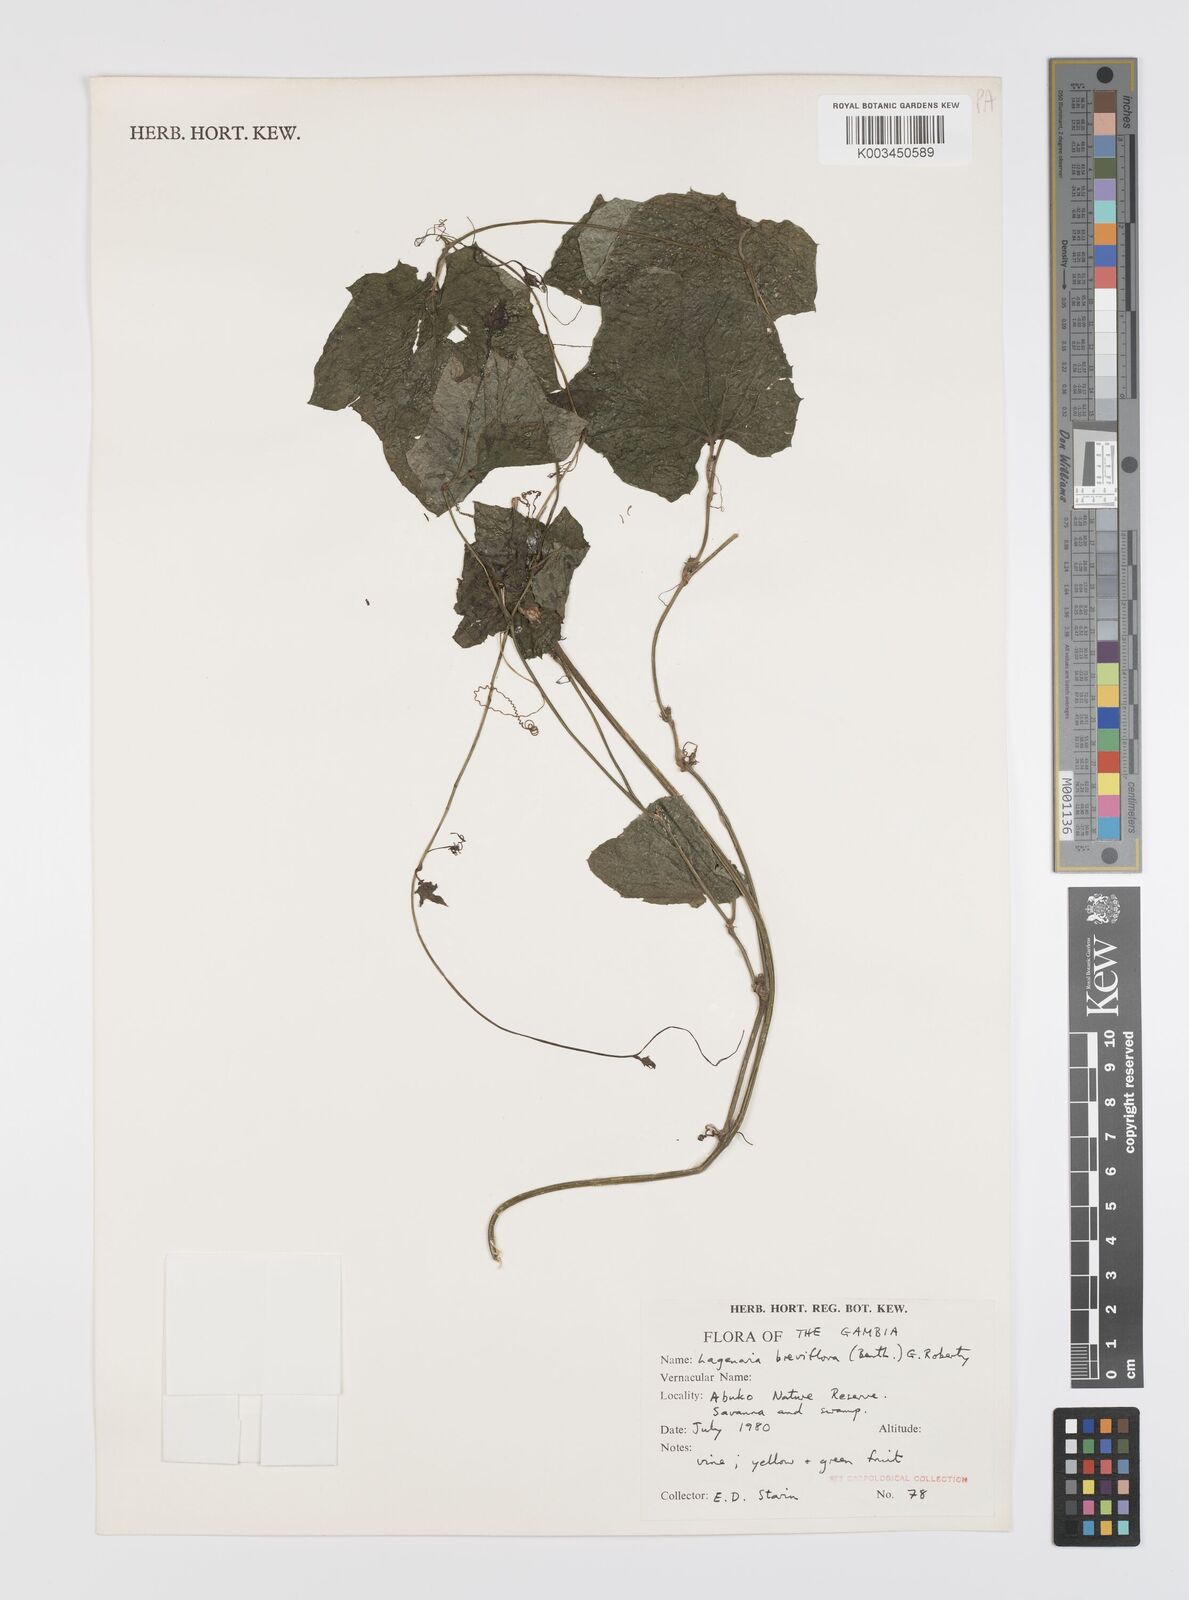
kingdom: Plantae
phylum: Tracheophyta
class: Magnoliopsida
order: Cucurbitales
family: Cucurbitaceae
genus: Lagenaria
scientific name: Lagenaria breviflora
